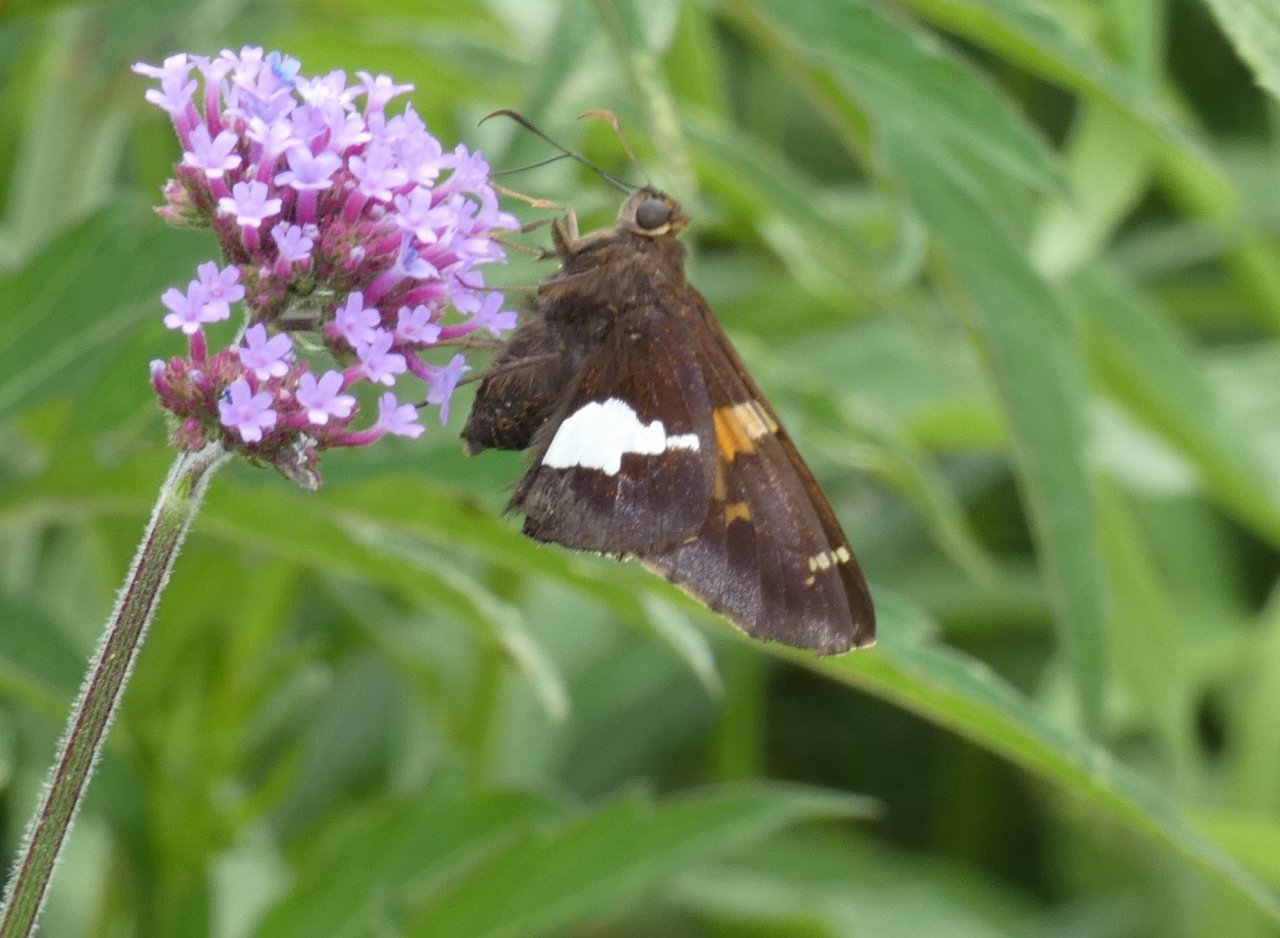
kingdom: Animalia
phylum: Arthropoda
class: Insecta
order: Lepidoptera
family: Hesperiidae
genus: Epargyreus
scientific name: Epargyreus clarus
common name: Silver-spotted Skipper
